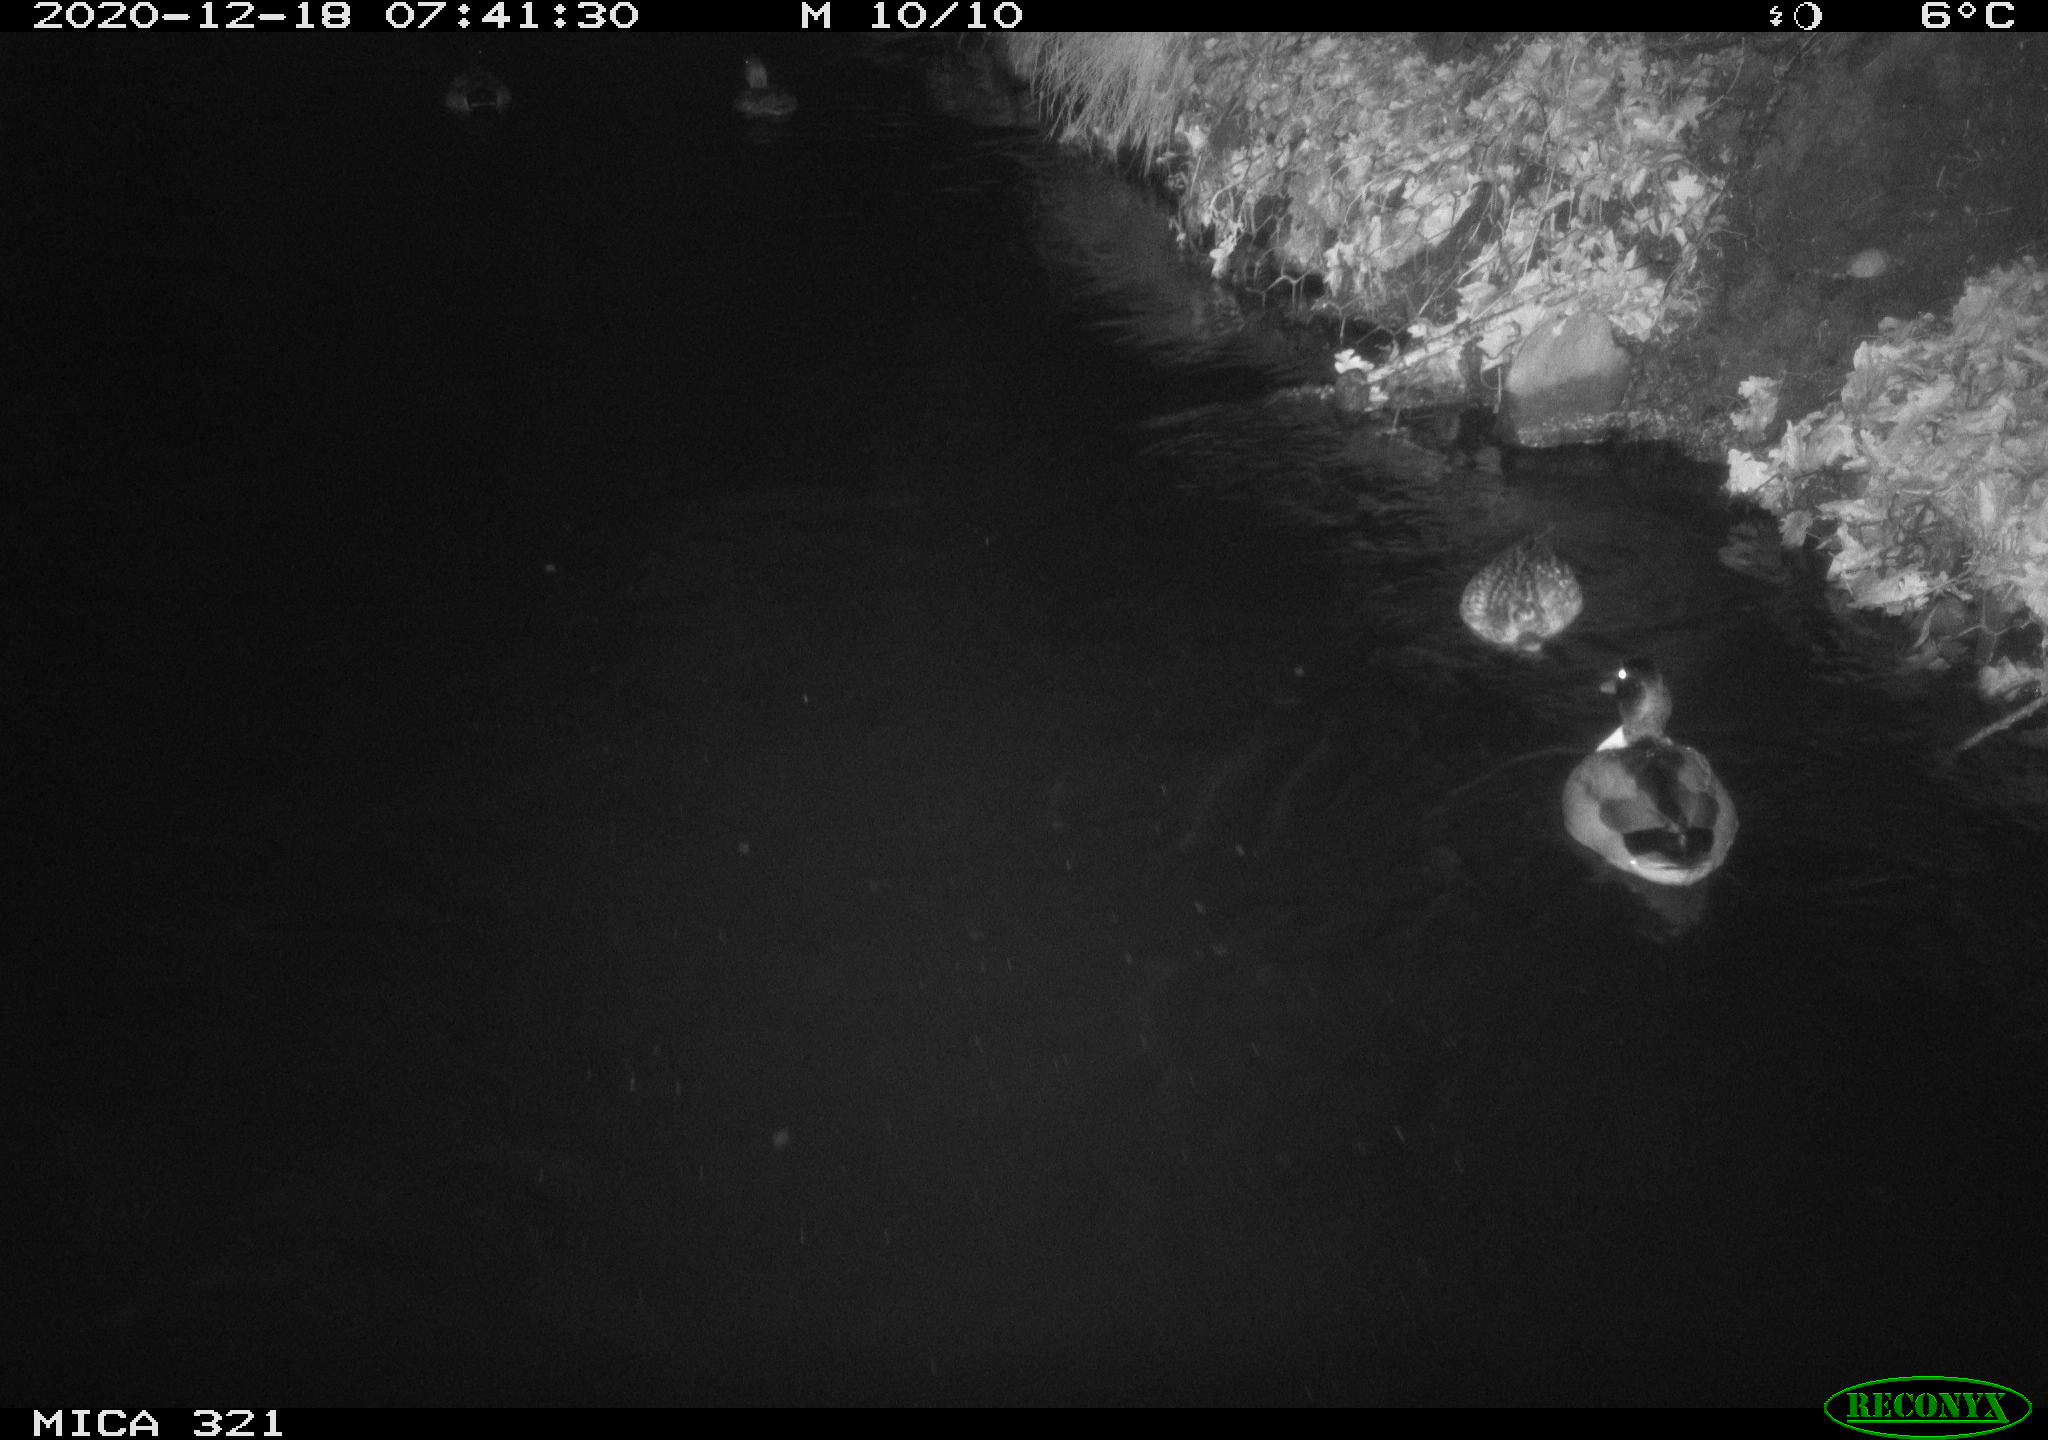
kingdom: Animalia
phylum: Chordata
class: Aves
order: Anseriformes
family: Anatidae
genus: Anas
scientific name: Anas platyrhynchos
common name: Mallard
